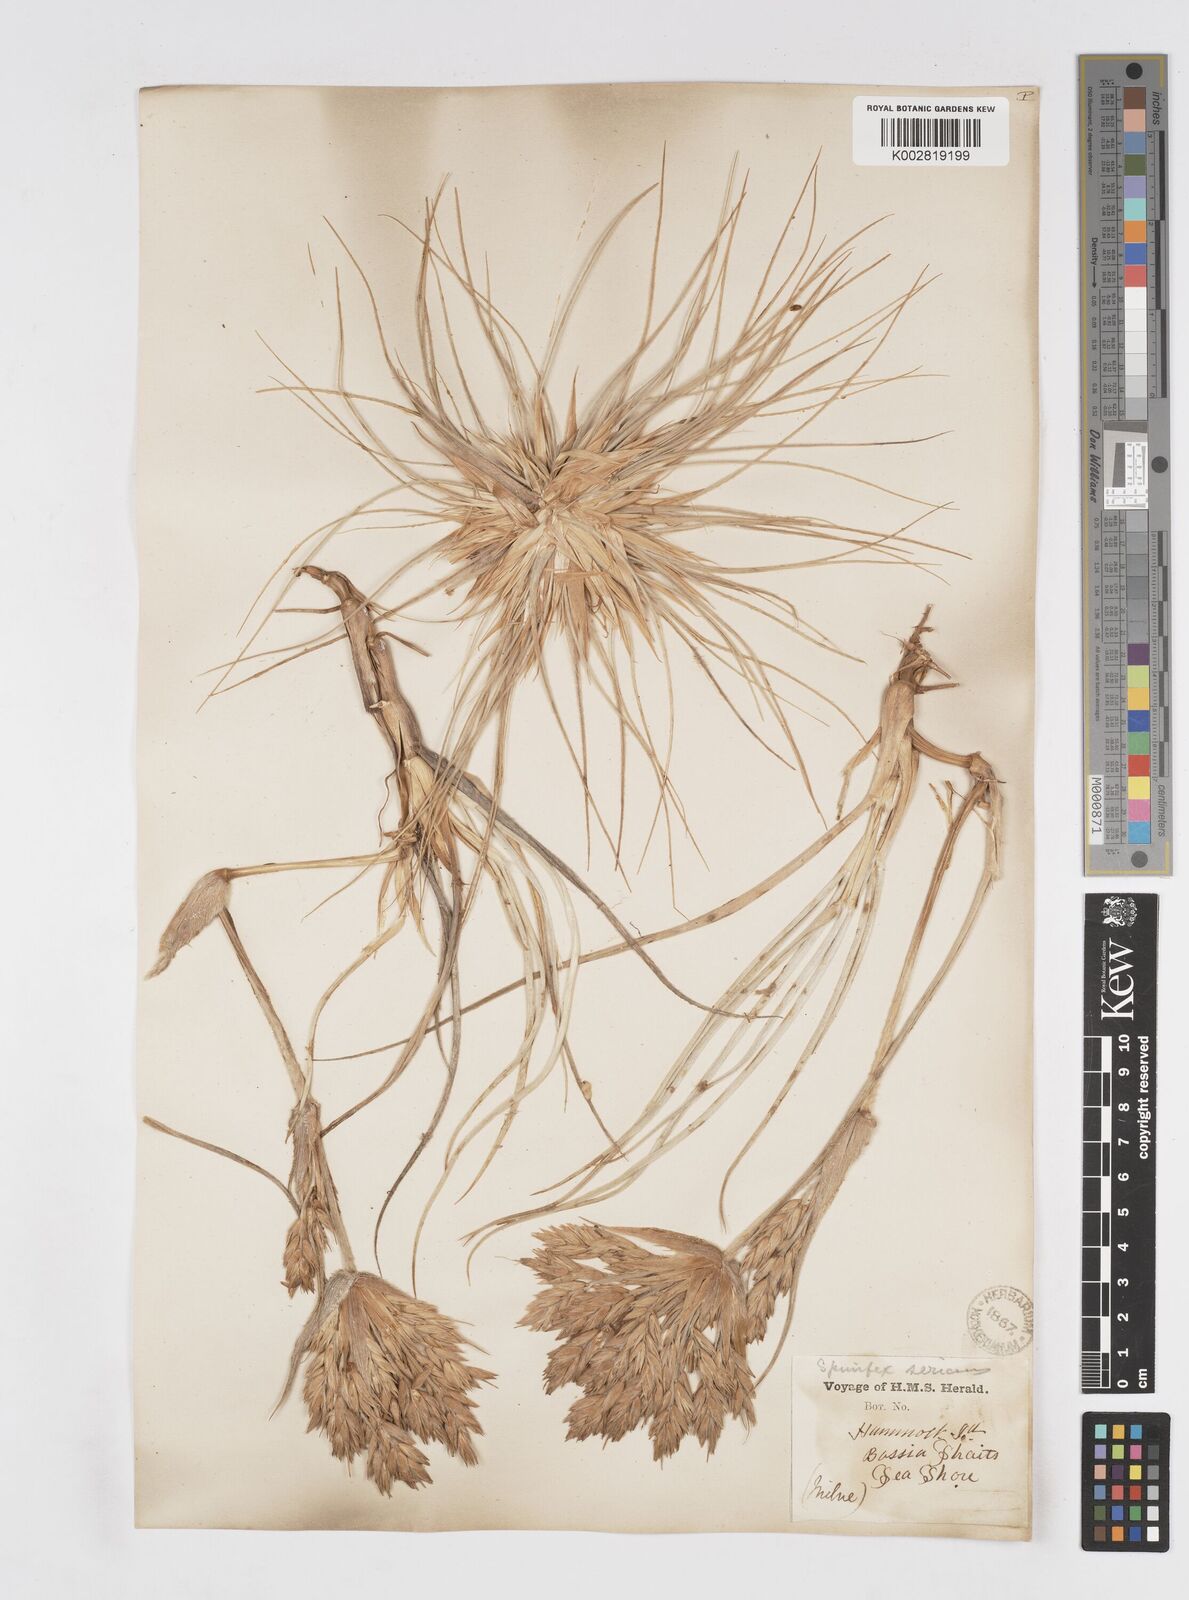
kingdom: Plantae
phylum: Tracheophyta
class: Liliopsida
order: Poales
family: Poaceae
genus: Spinifex
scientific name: Spinifex sericeus
